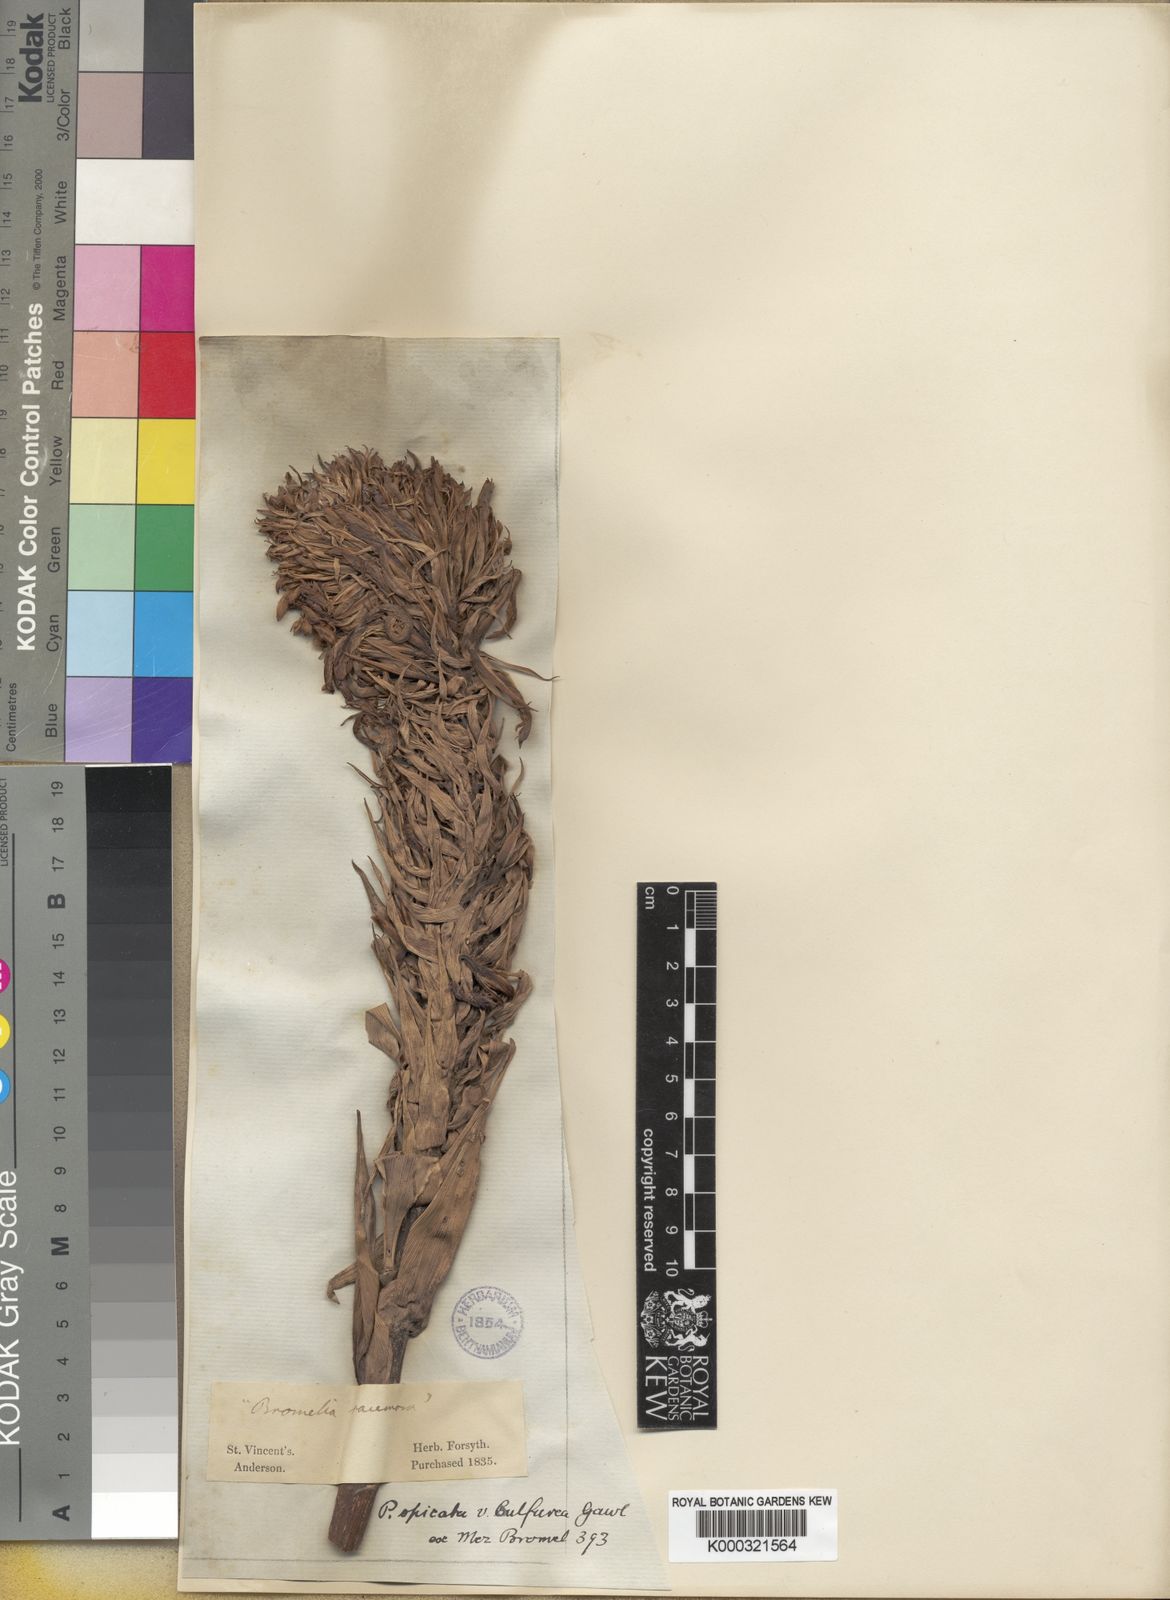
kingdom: Plantae
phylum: Tracheophyta
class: Liliopsida
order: Poales
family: Bromeliaceae
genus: Pitcairnia
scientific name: Pitcairnia spicata
